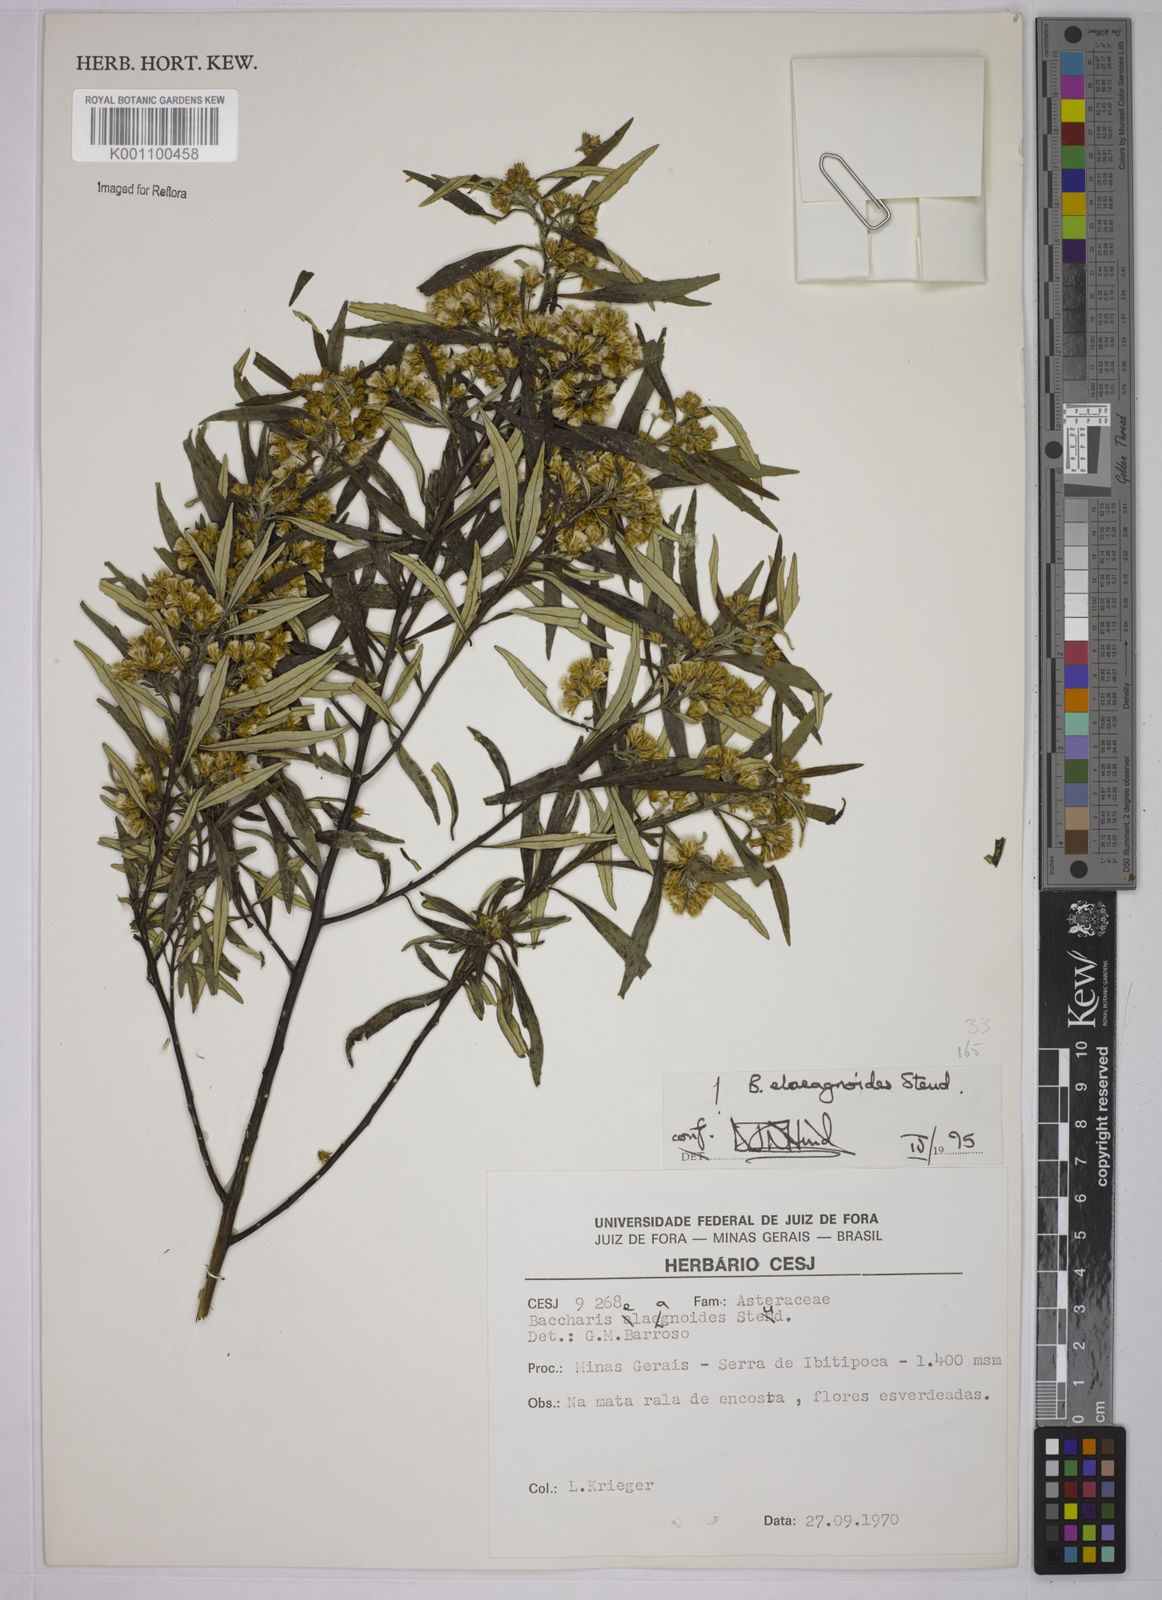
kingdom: Plantae
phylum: Tracheophyta
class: Magnoliopsida
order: Asterales
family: Asteraceae
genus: Baccharis
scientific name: Baccharis
